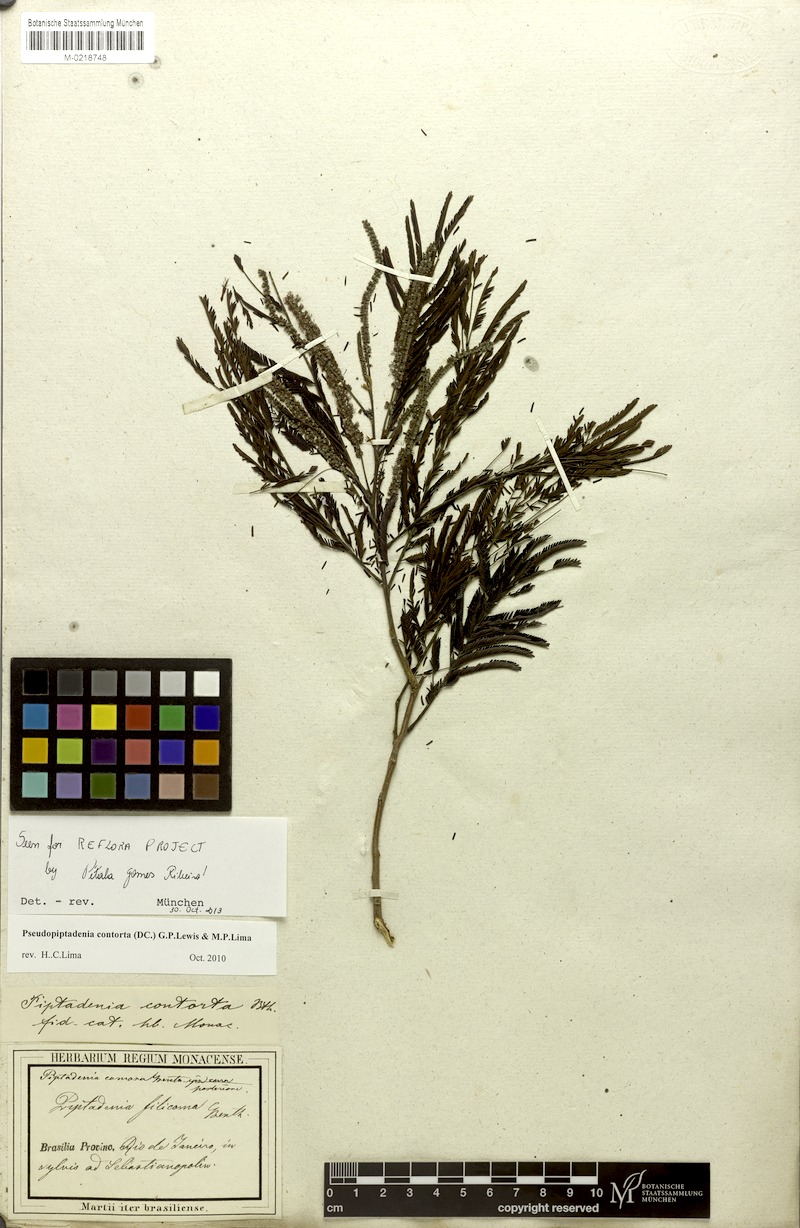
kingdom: Plantae
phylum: Tracheophyta
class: Magnoliopsida
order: Fabales
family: Fabaceae
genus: Pseudopiptadenia
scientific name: Pseudopiptadenia contorta
